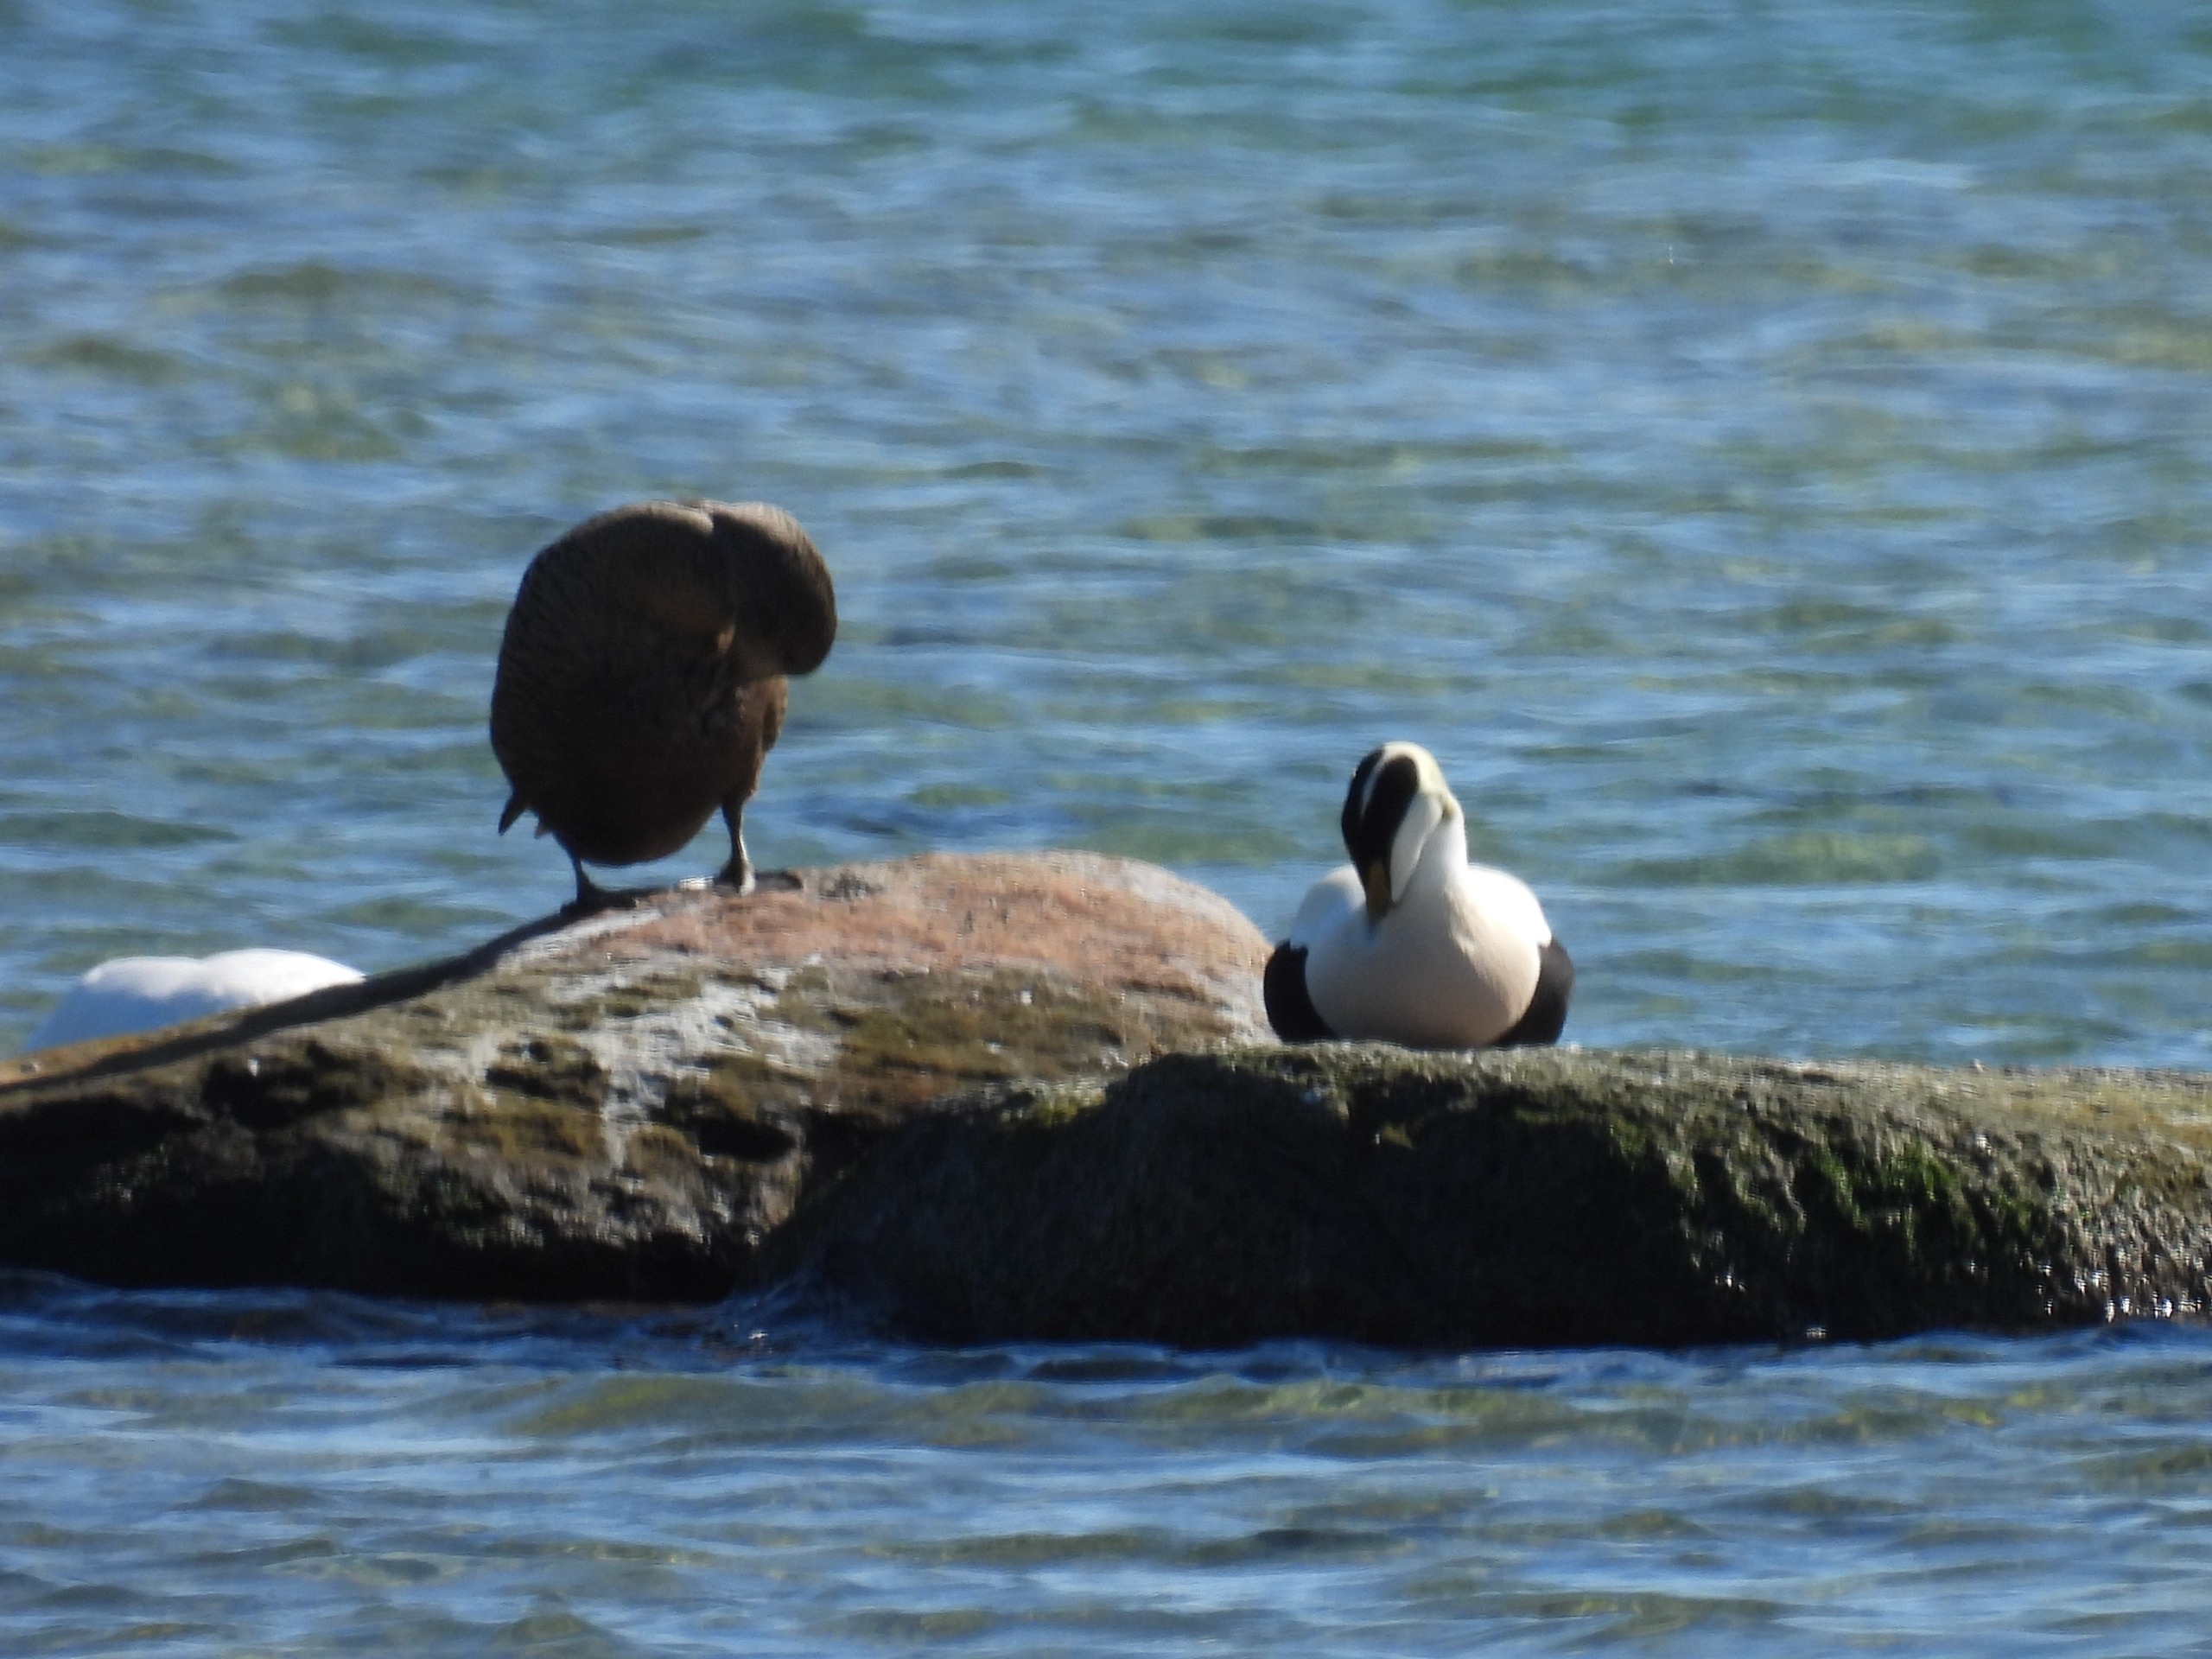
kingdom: Animalia
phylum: Chordata
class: Aves
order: Anseriformes
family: Anatidae
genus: Somateria
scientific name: Somateria mollissima
